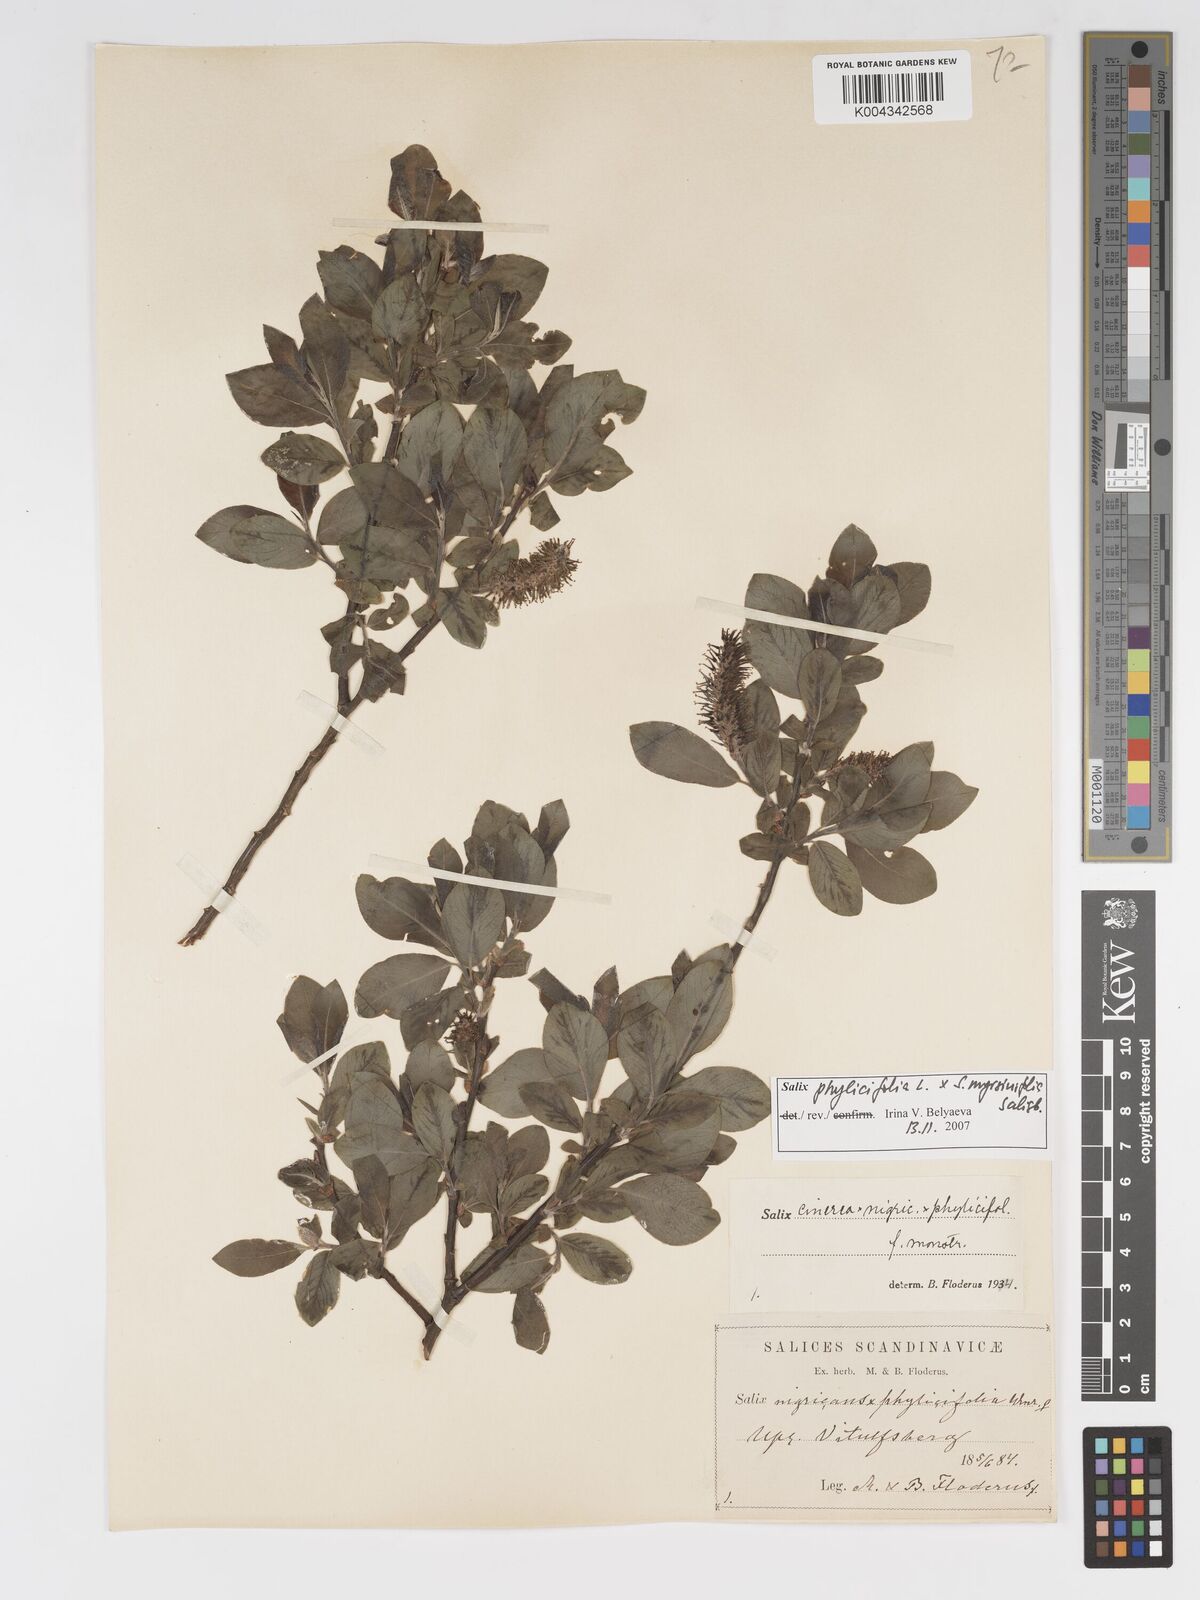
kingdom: Plantae
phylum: Tracheophyta
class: Magnoliopsida
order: Malpighiales
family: Salicaceae
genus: Salix
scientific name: Salix cinerea
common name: Common sallow
